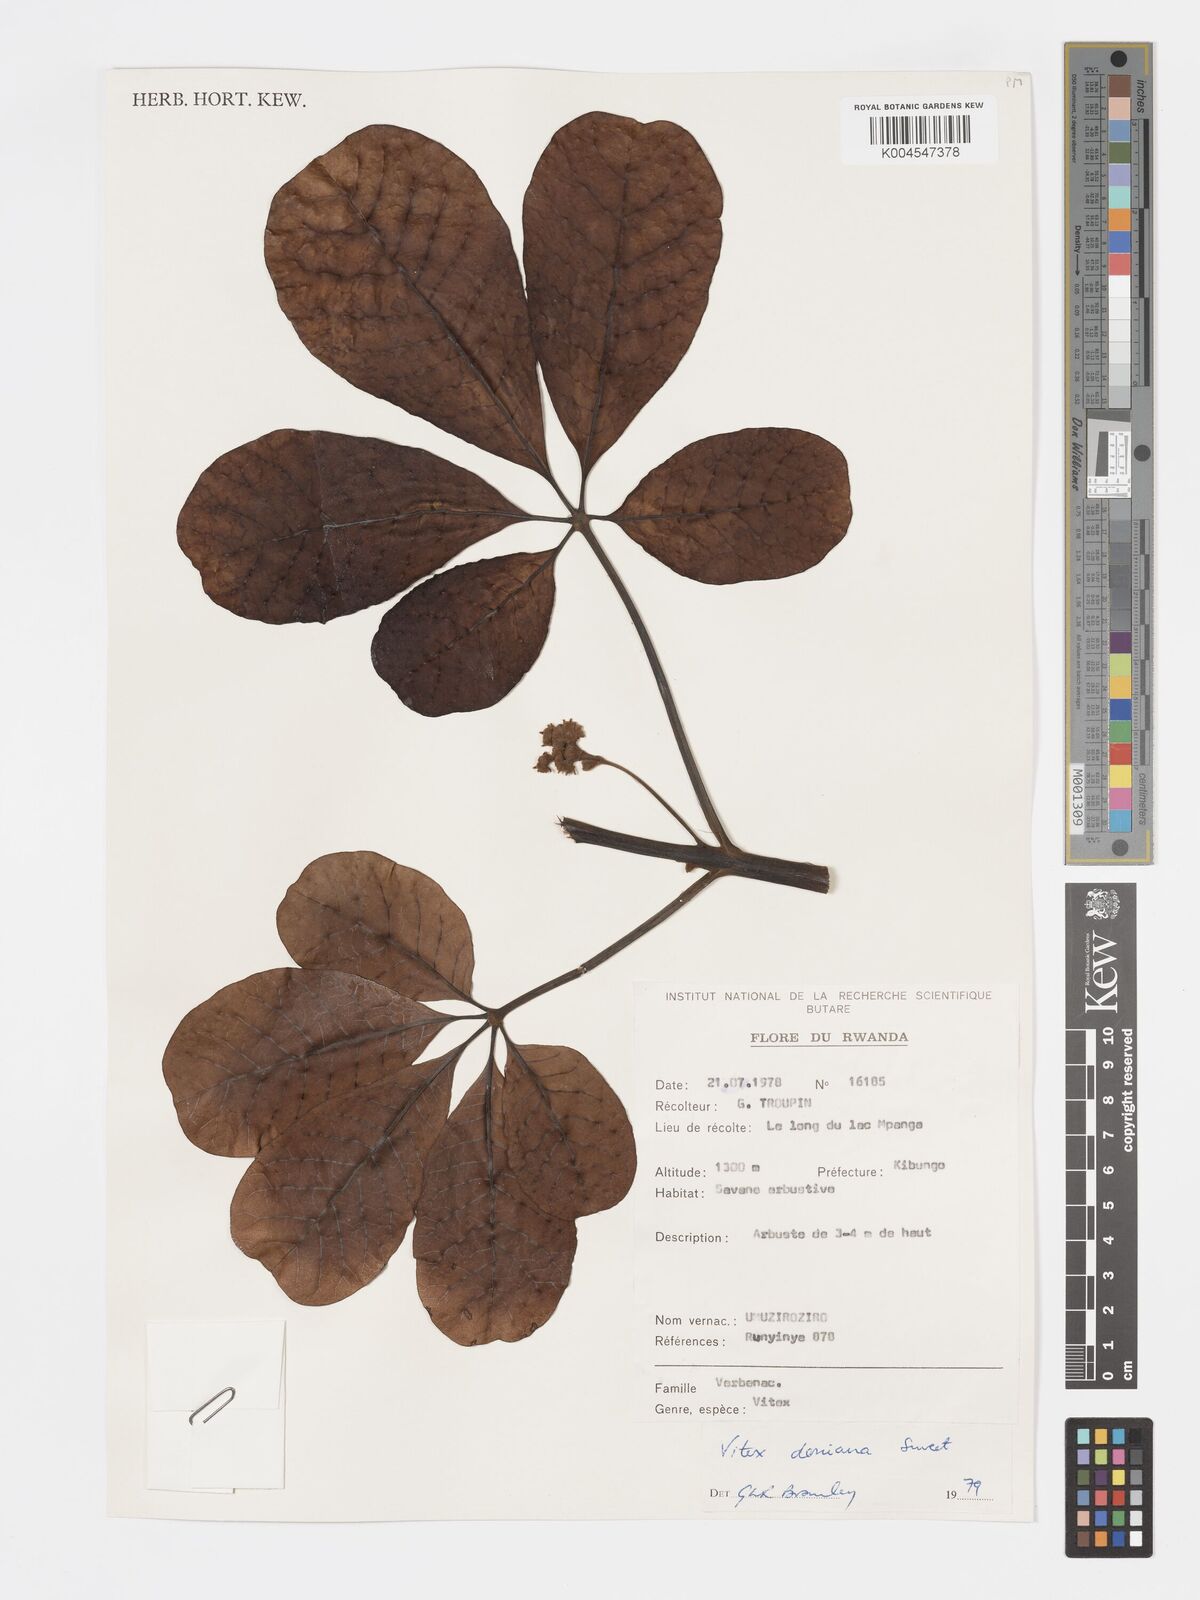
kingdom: Plantae
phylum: Tracheophyta
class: Magnoliopsida
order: Lamiales
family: Lamiaceae
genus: Vitex
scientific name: Vitex doniana
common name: Black plum
